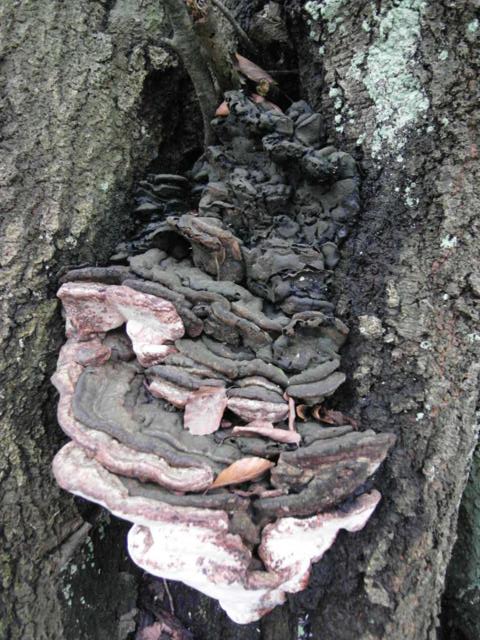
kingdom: Fungi
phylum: Basidiomycota
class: Agaricomycetes
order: Polyporales
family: Polyporaceae
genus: Ganoderma
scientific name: Ganoderma adspersum
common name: grov lakporesvamp
